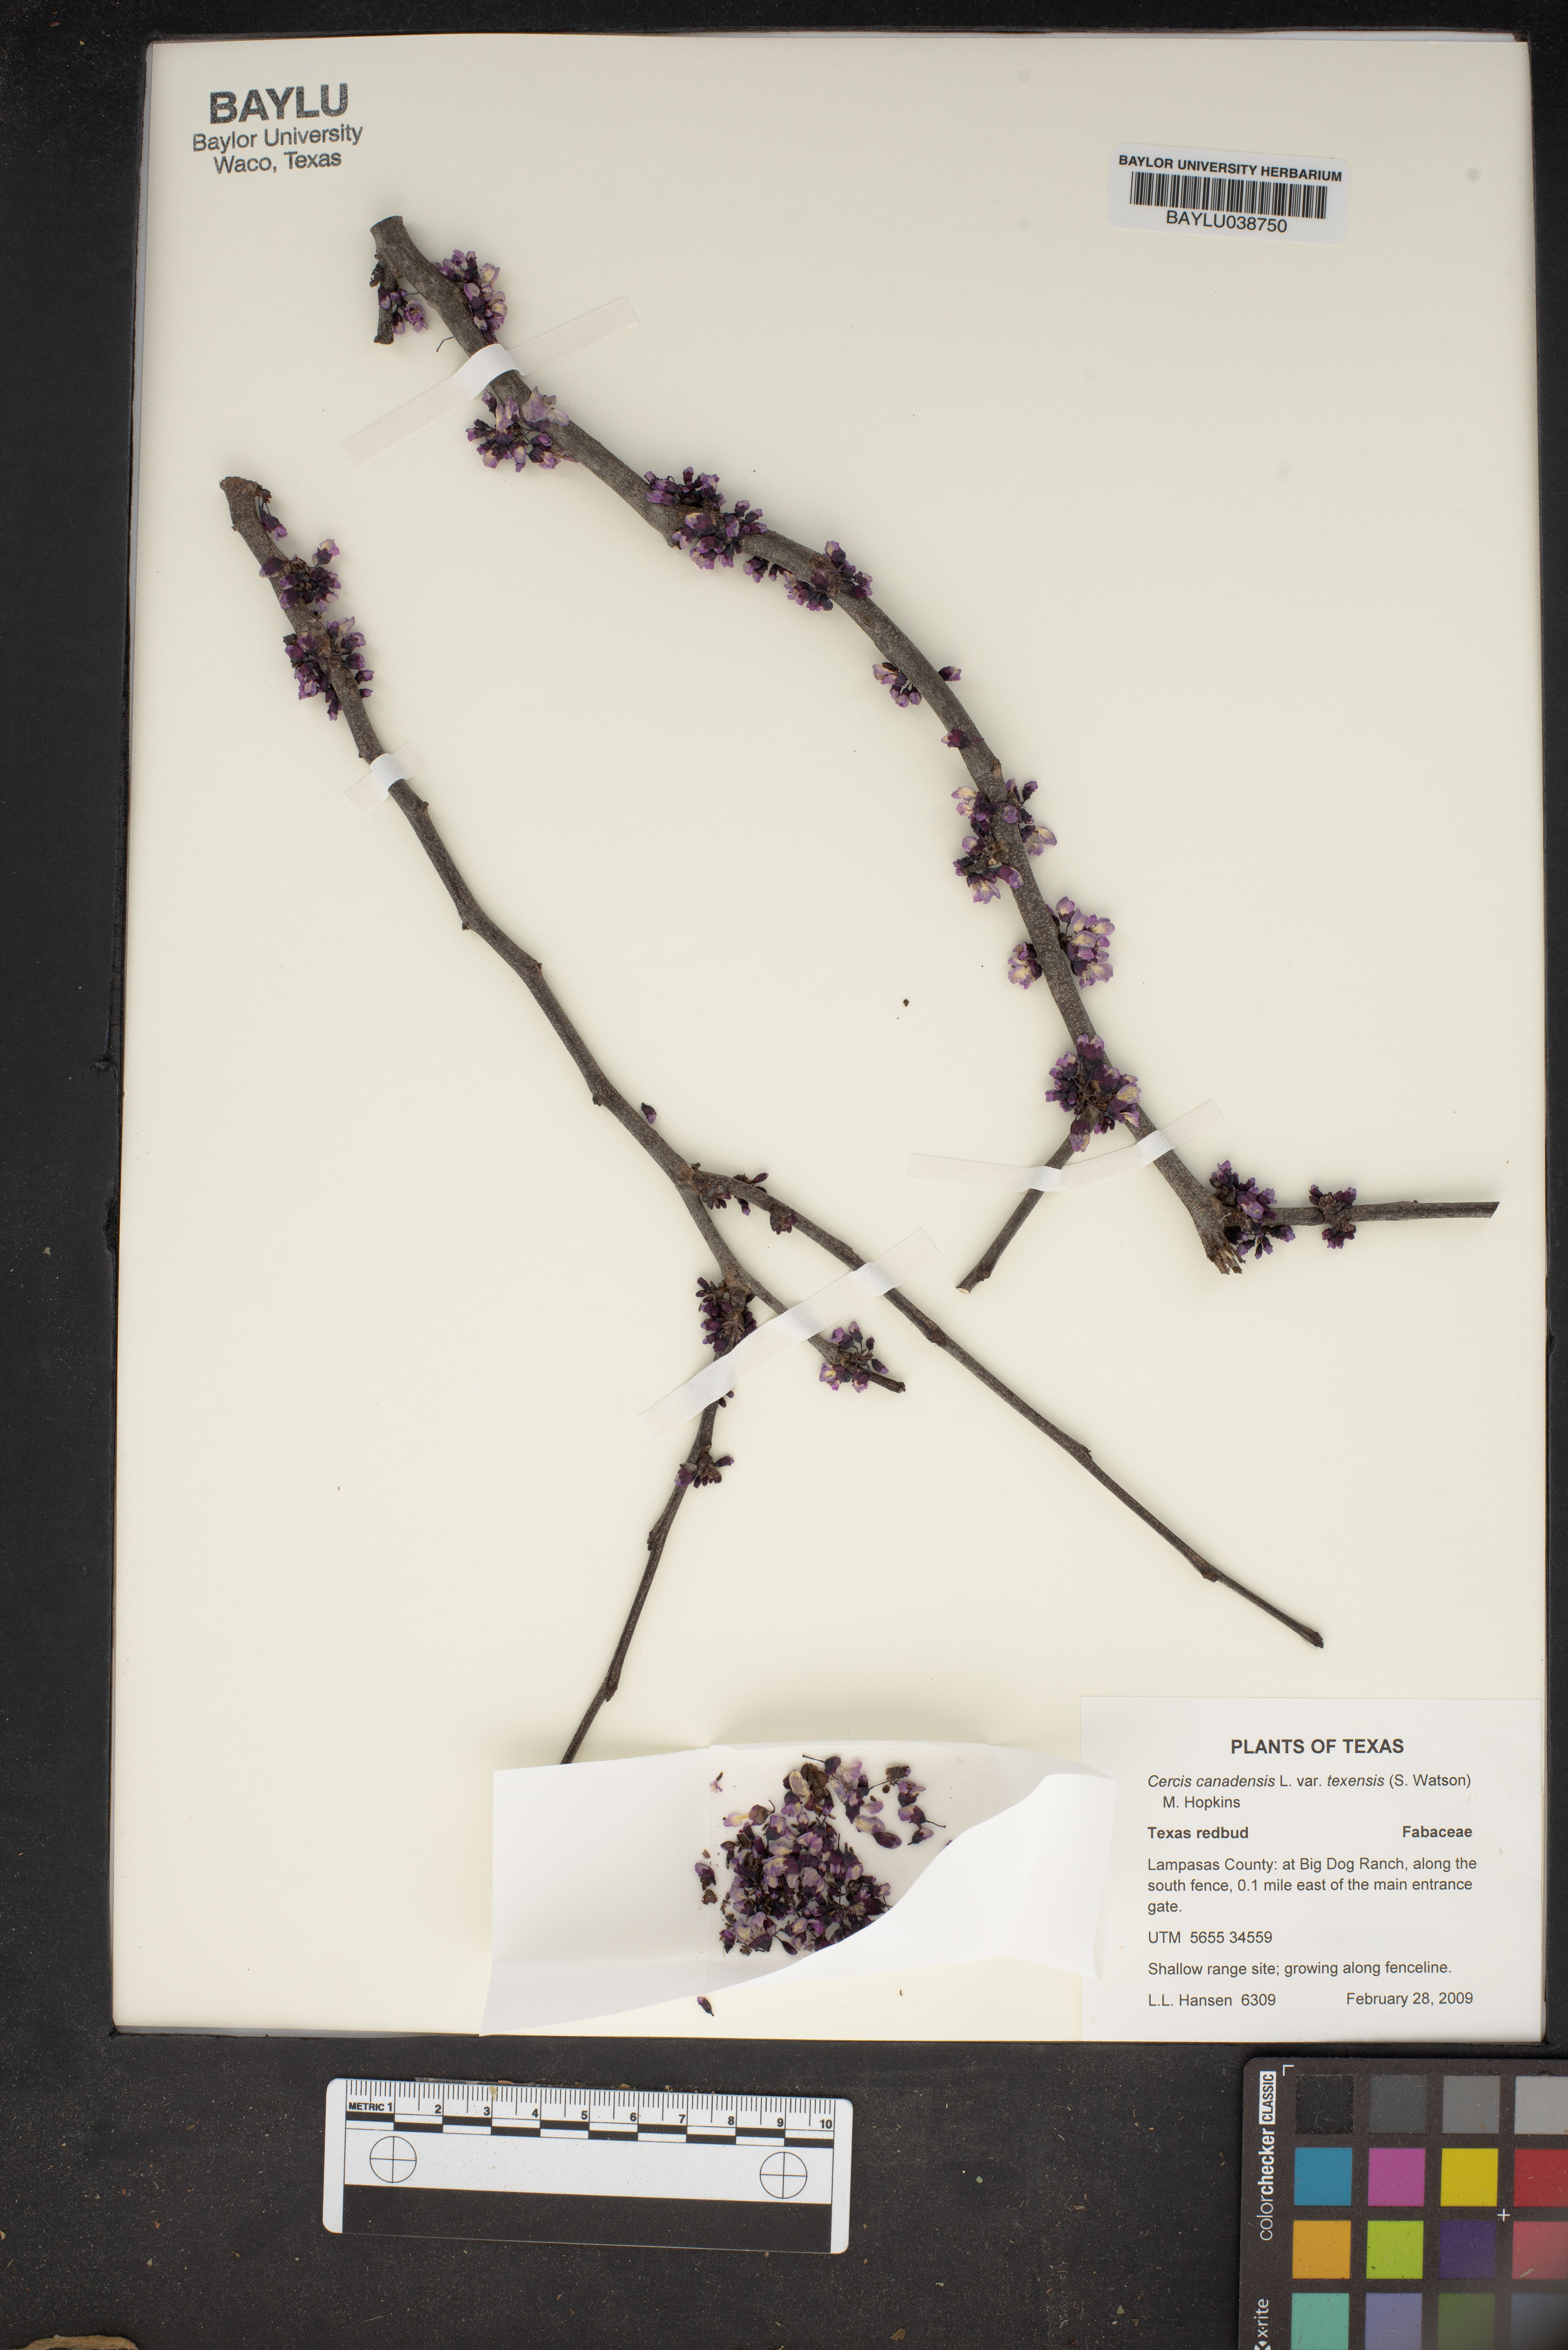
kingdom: Plantae
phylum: Tracheophyta
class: Magnoliopsida
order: Fabales
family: Fabaceae
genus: Cercis
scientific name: Cercis canadensis
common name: Eastern redbud
